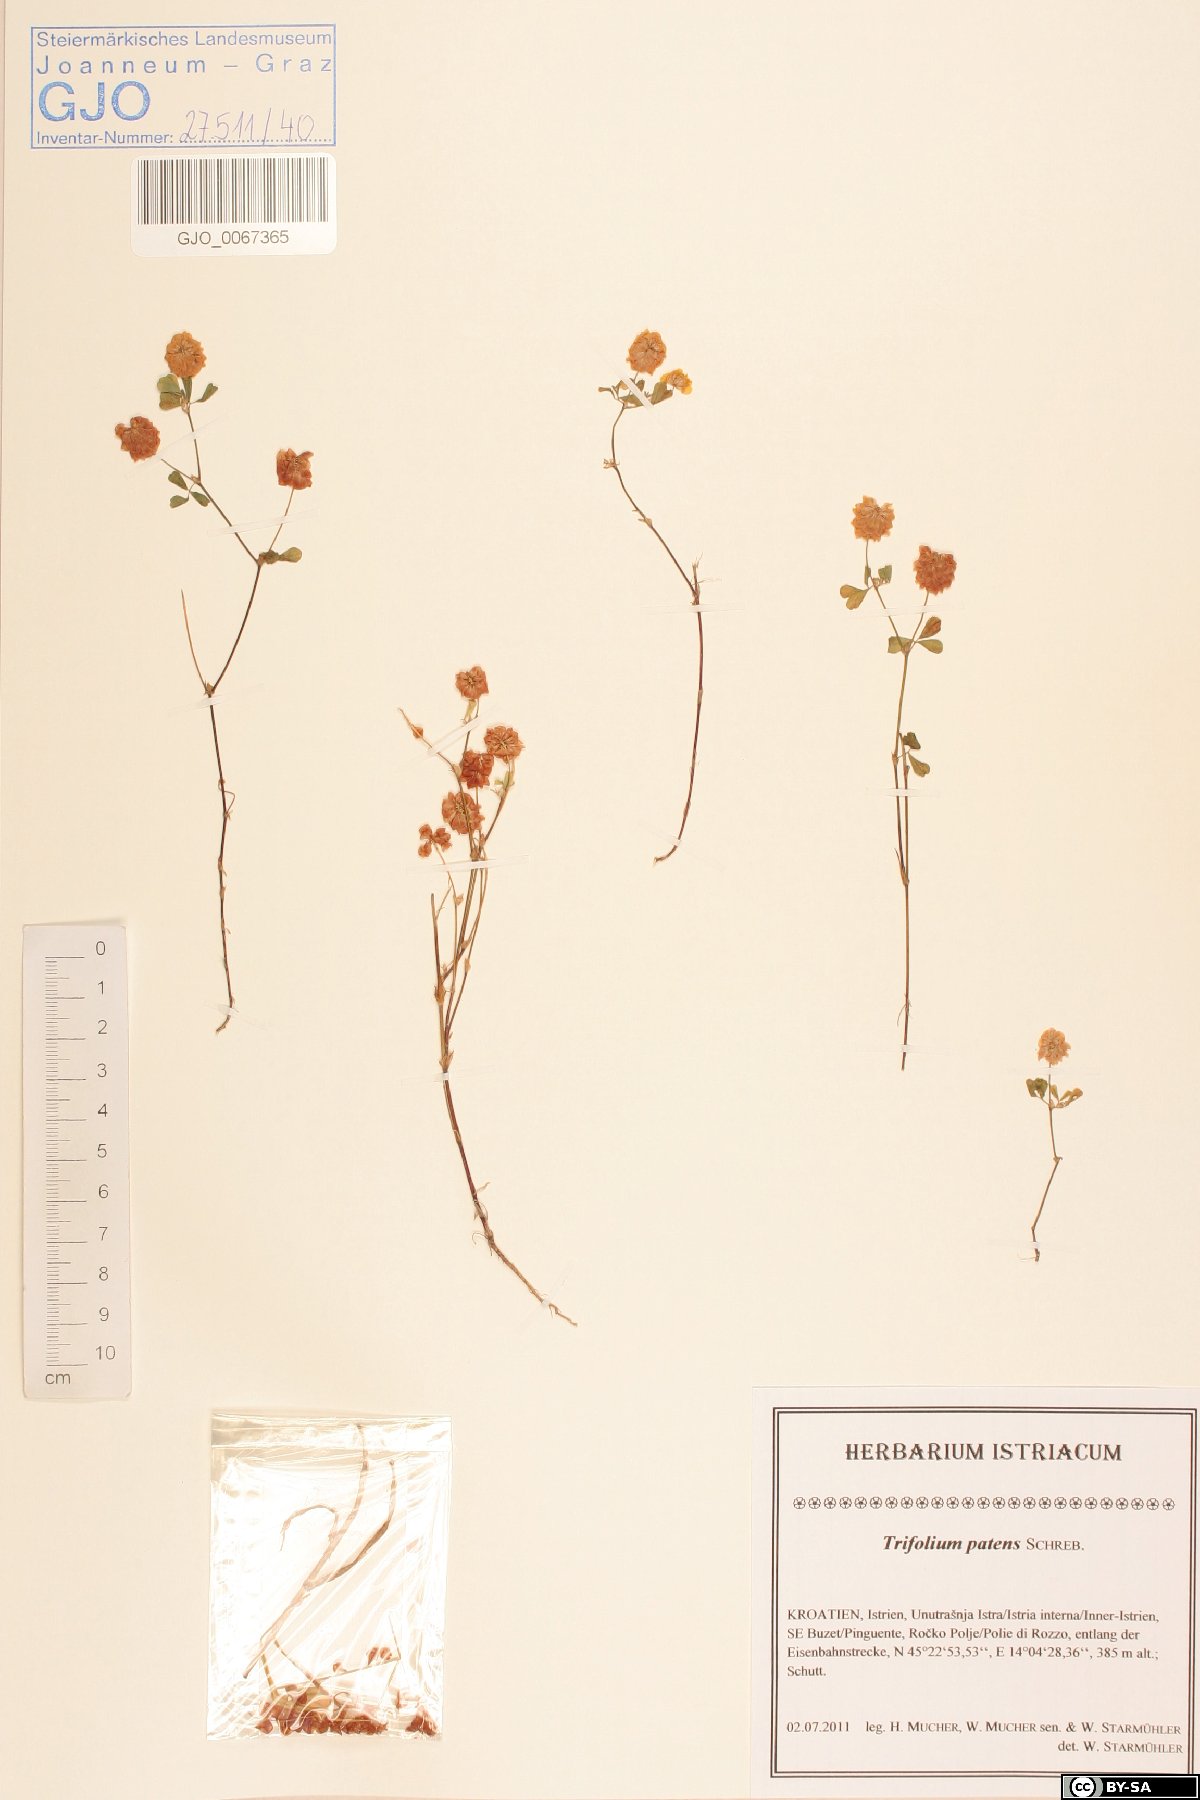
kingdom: Plantae
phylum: Tracheophyta
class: Magnoliopsida
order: Fabales
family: Fabaceae
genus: Trifolium
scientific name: Trifolium patens
